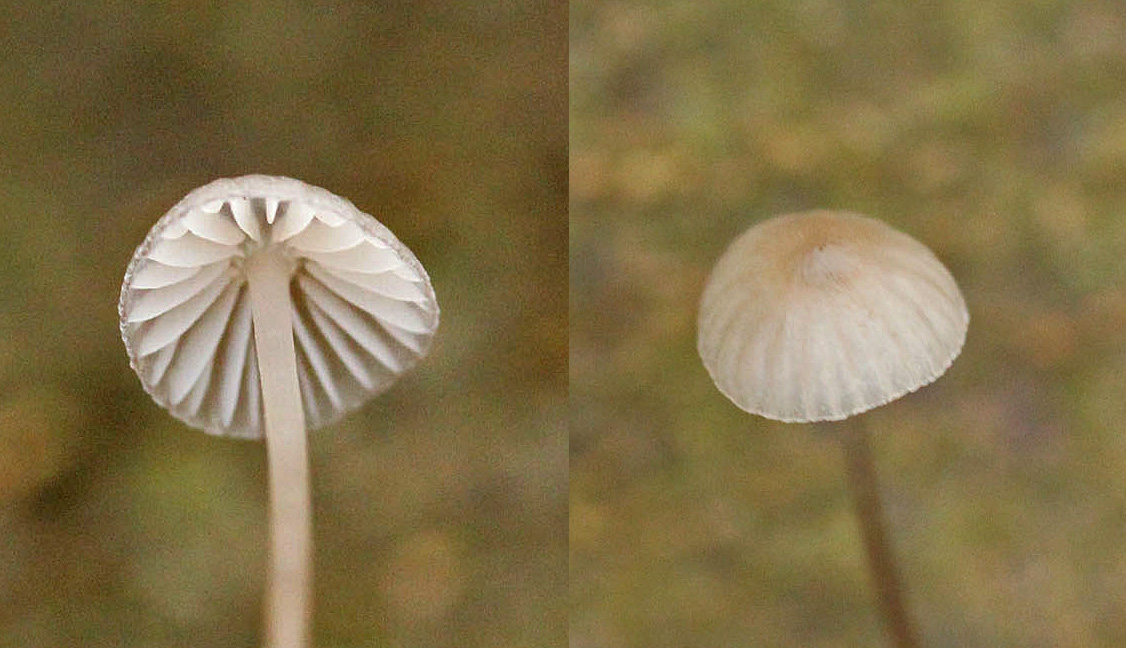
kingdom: Fungi
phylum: Basidiomycota
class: Agaricomycetes
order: Agaricales
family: Mycenaceae
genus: Mycena
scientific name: Mycena vitilis
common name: blankstokket huesvamp
